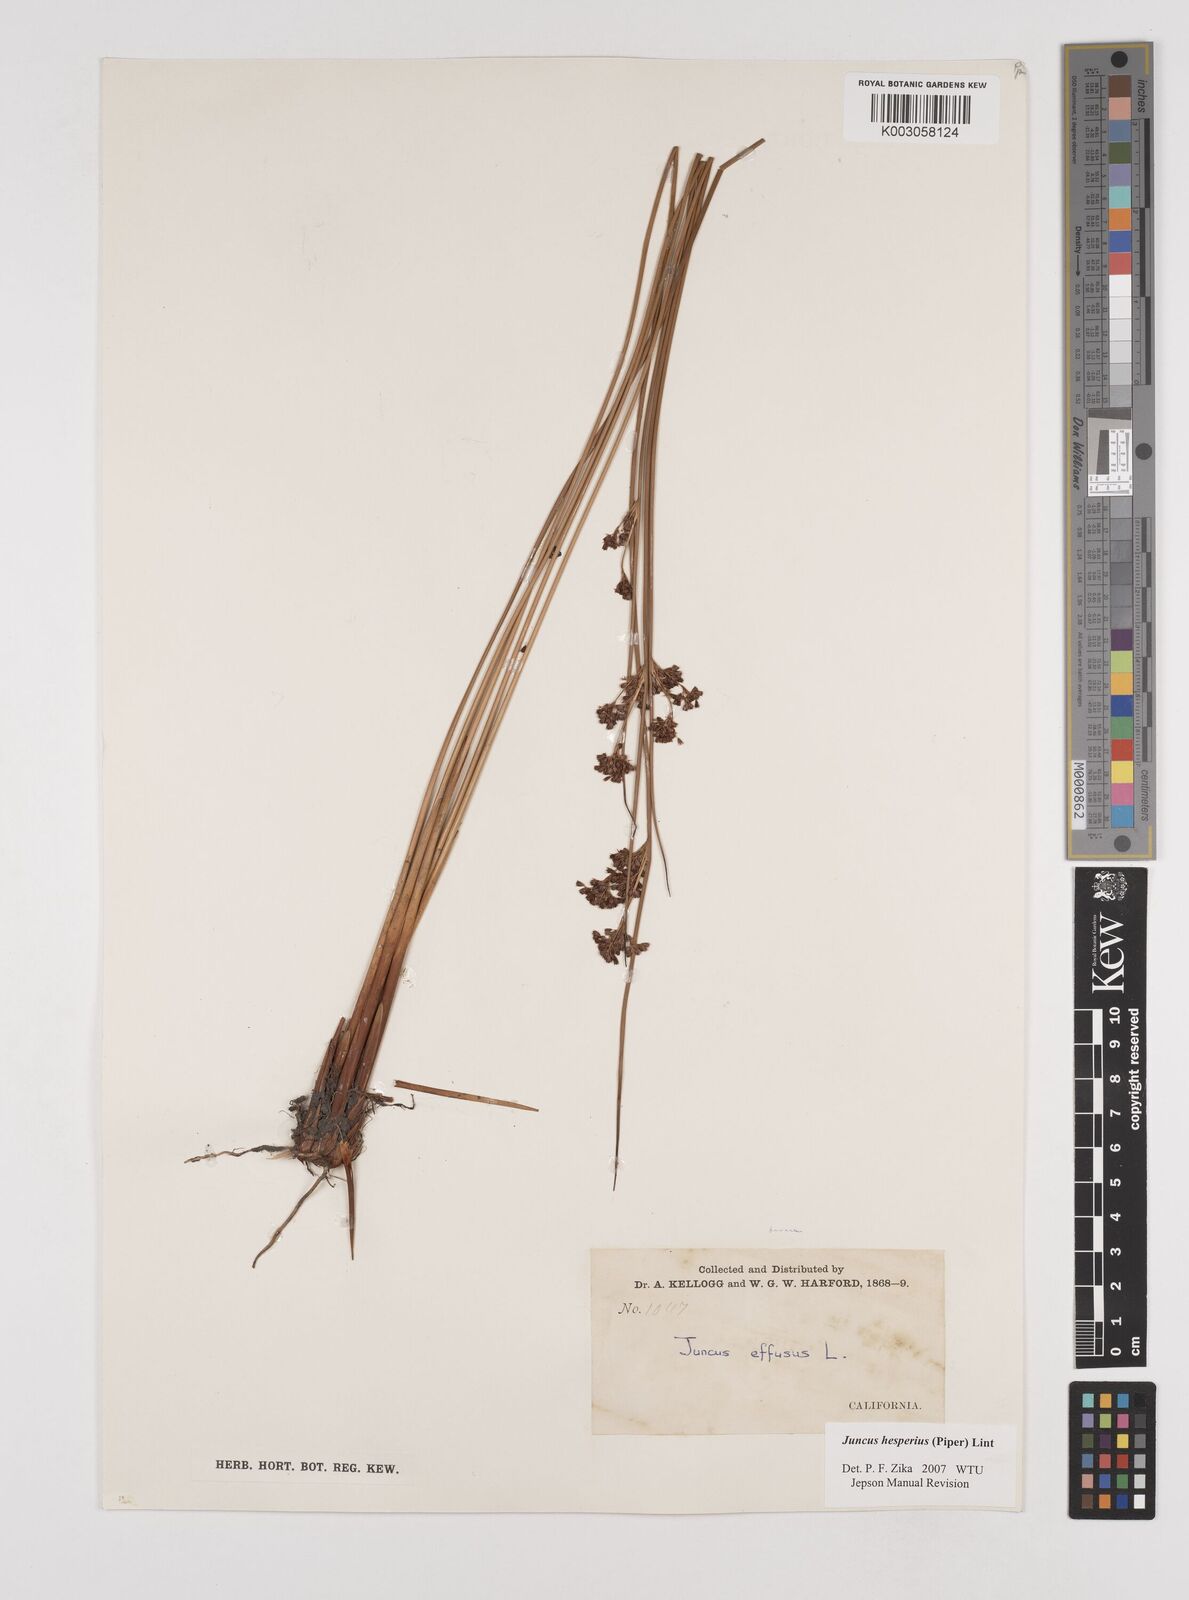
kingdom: Plantae
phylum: Tracheophyta
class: Liliopsida
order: Poales
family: Juncaceae
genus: Juncus
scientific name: Juncus hesperius
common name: Coast rush
